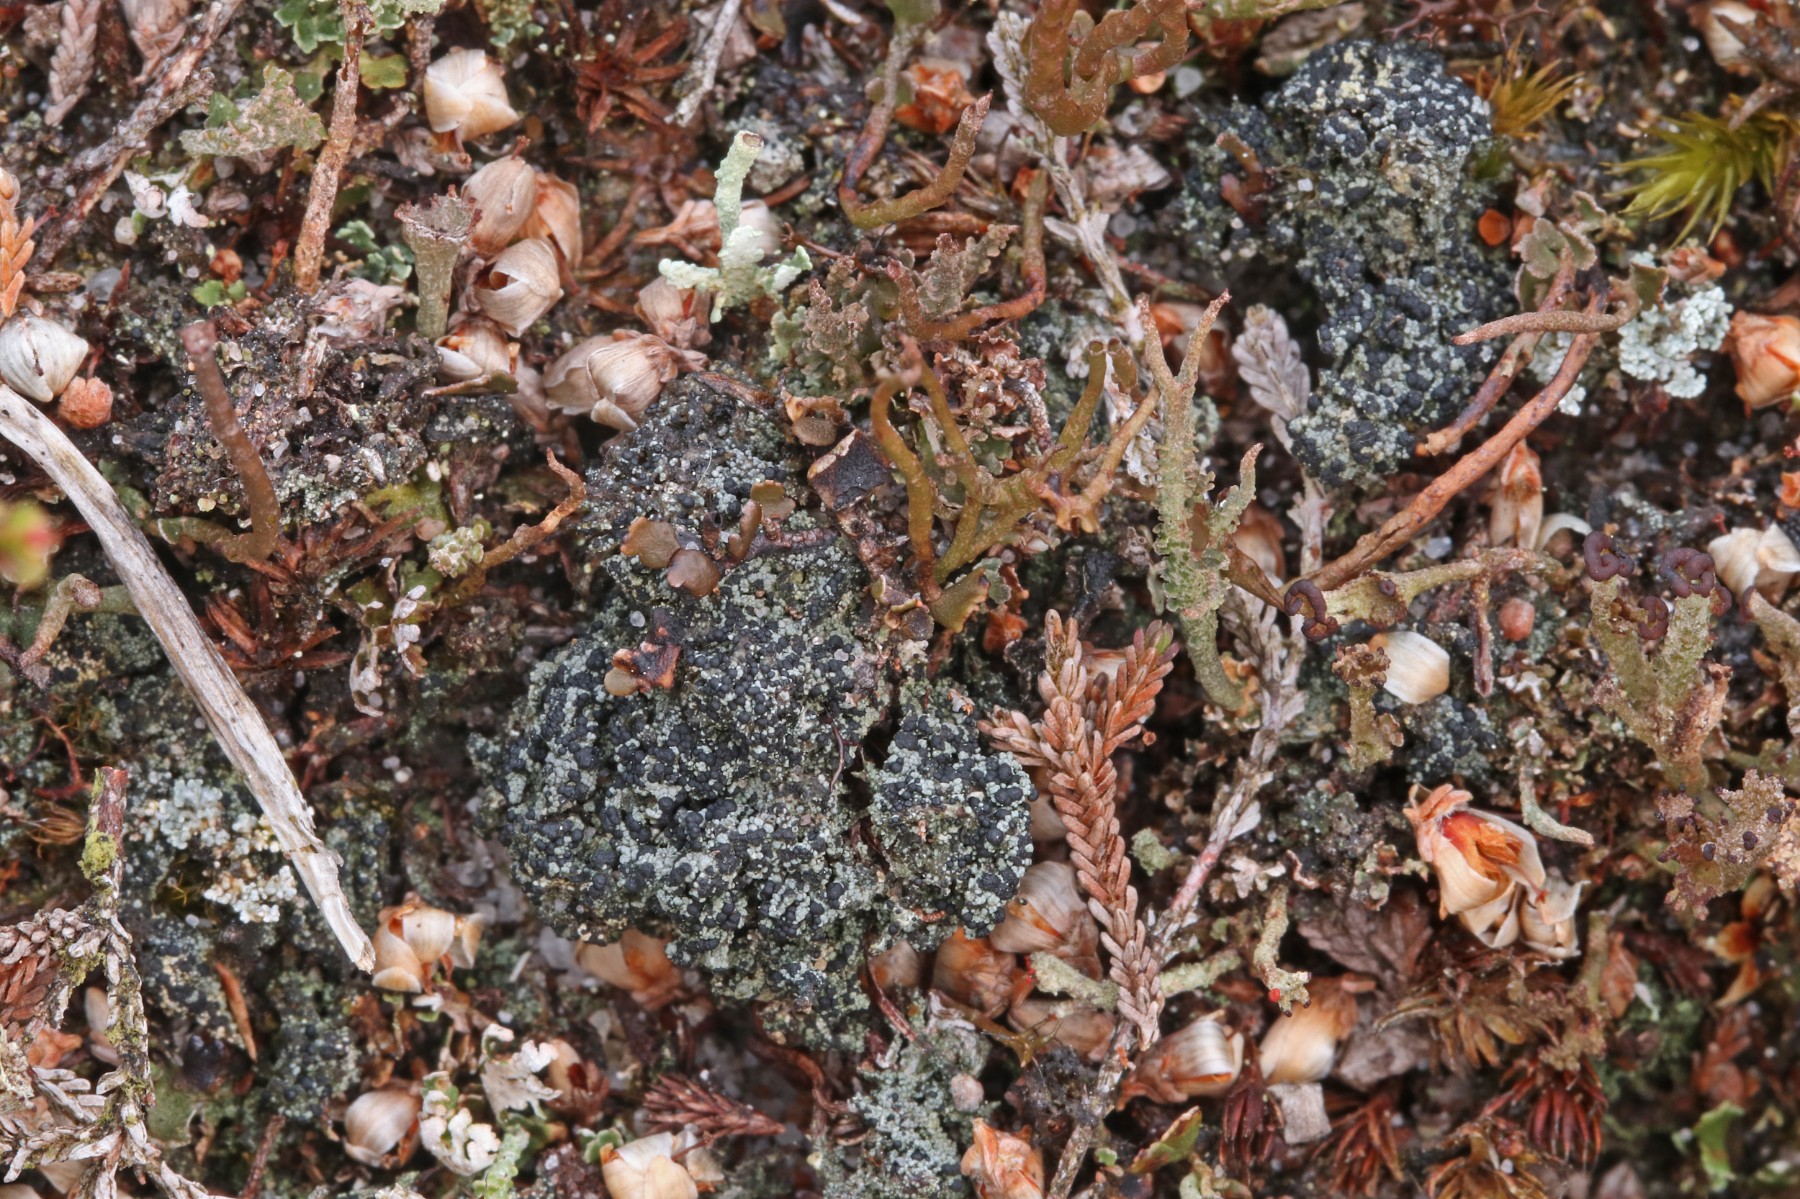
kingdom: Fungi
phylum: Ascomycota
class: Lecanoromycetes
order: Lecanorales
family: Byssolomataceae
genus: Micarea
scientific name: Micarea lignaria
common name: tørve-knaplav
